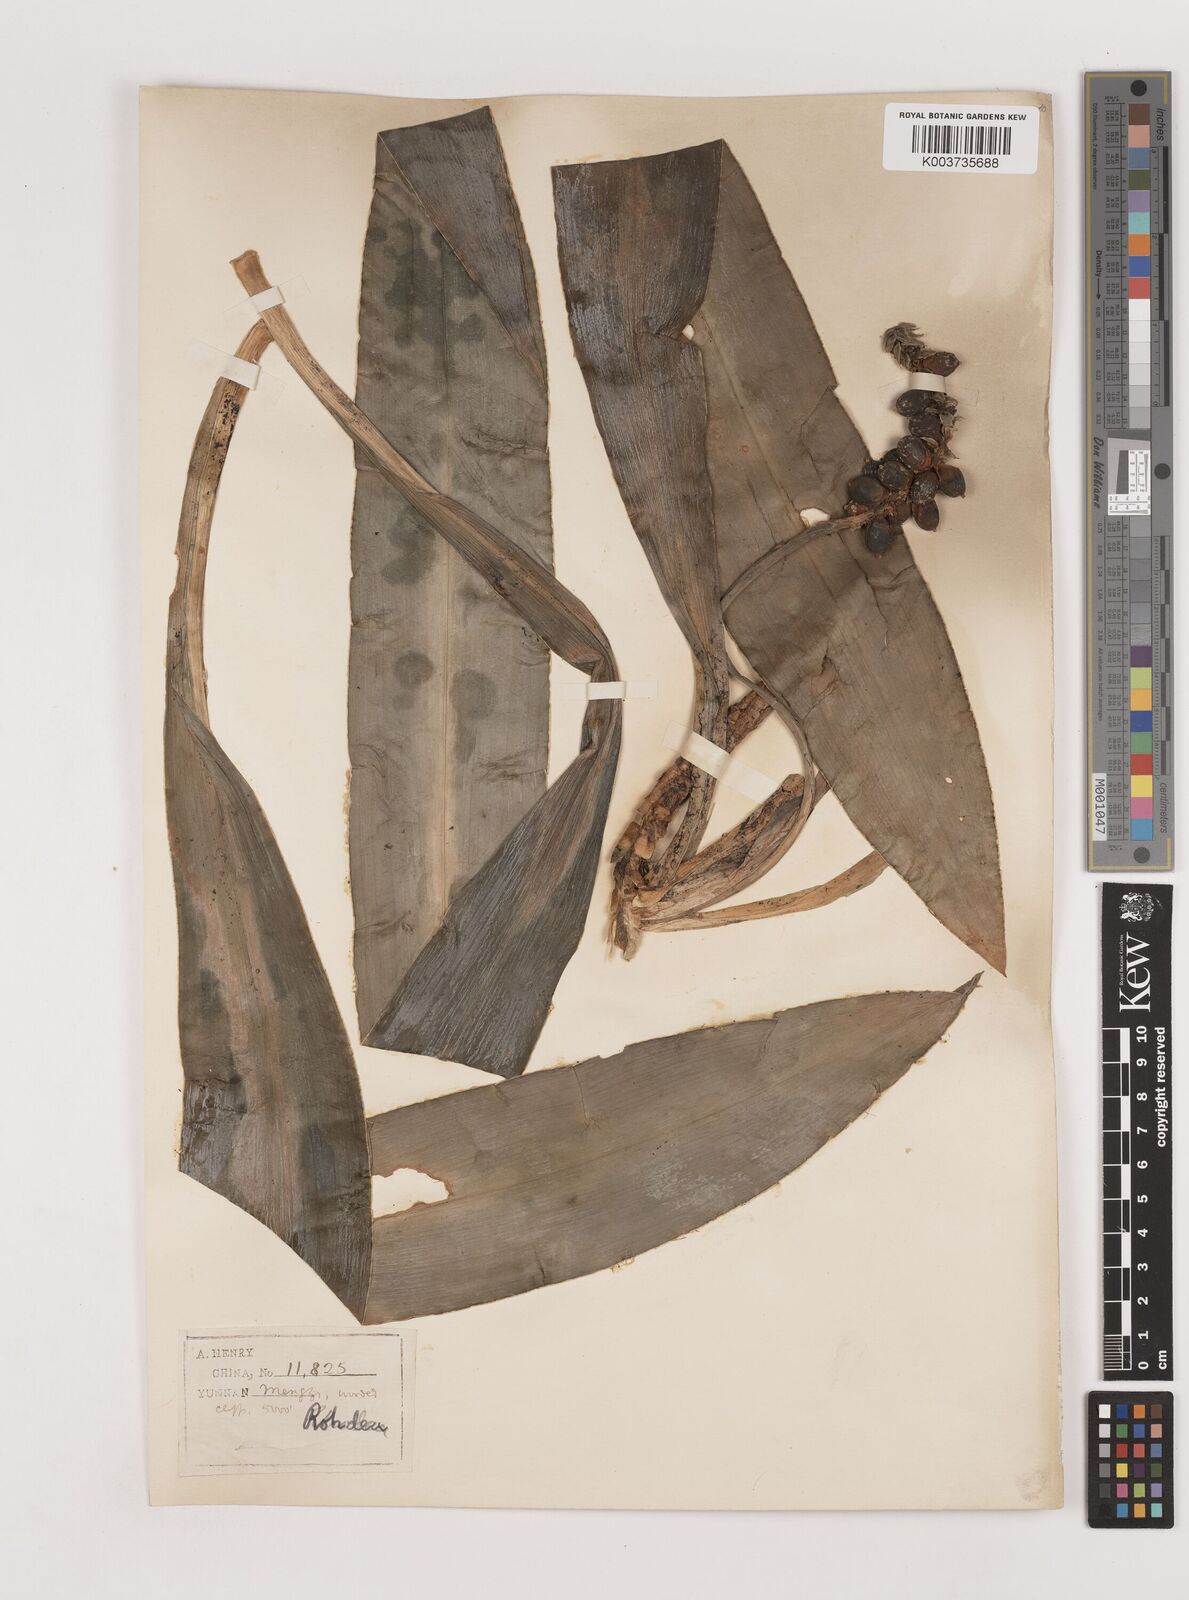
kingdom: Plantae
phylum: Tracheophyta
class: Liliopsida
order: Asparagales
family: Asparagaceae
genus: Rohdea
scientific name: Rohdea delavayi
